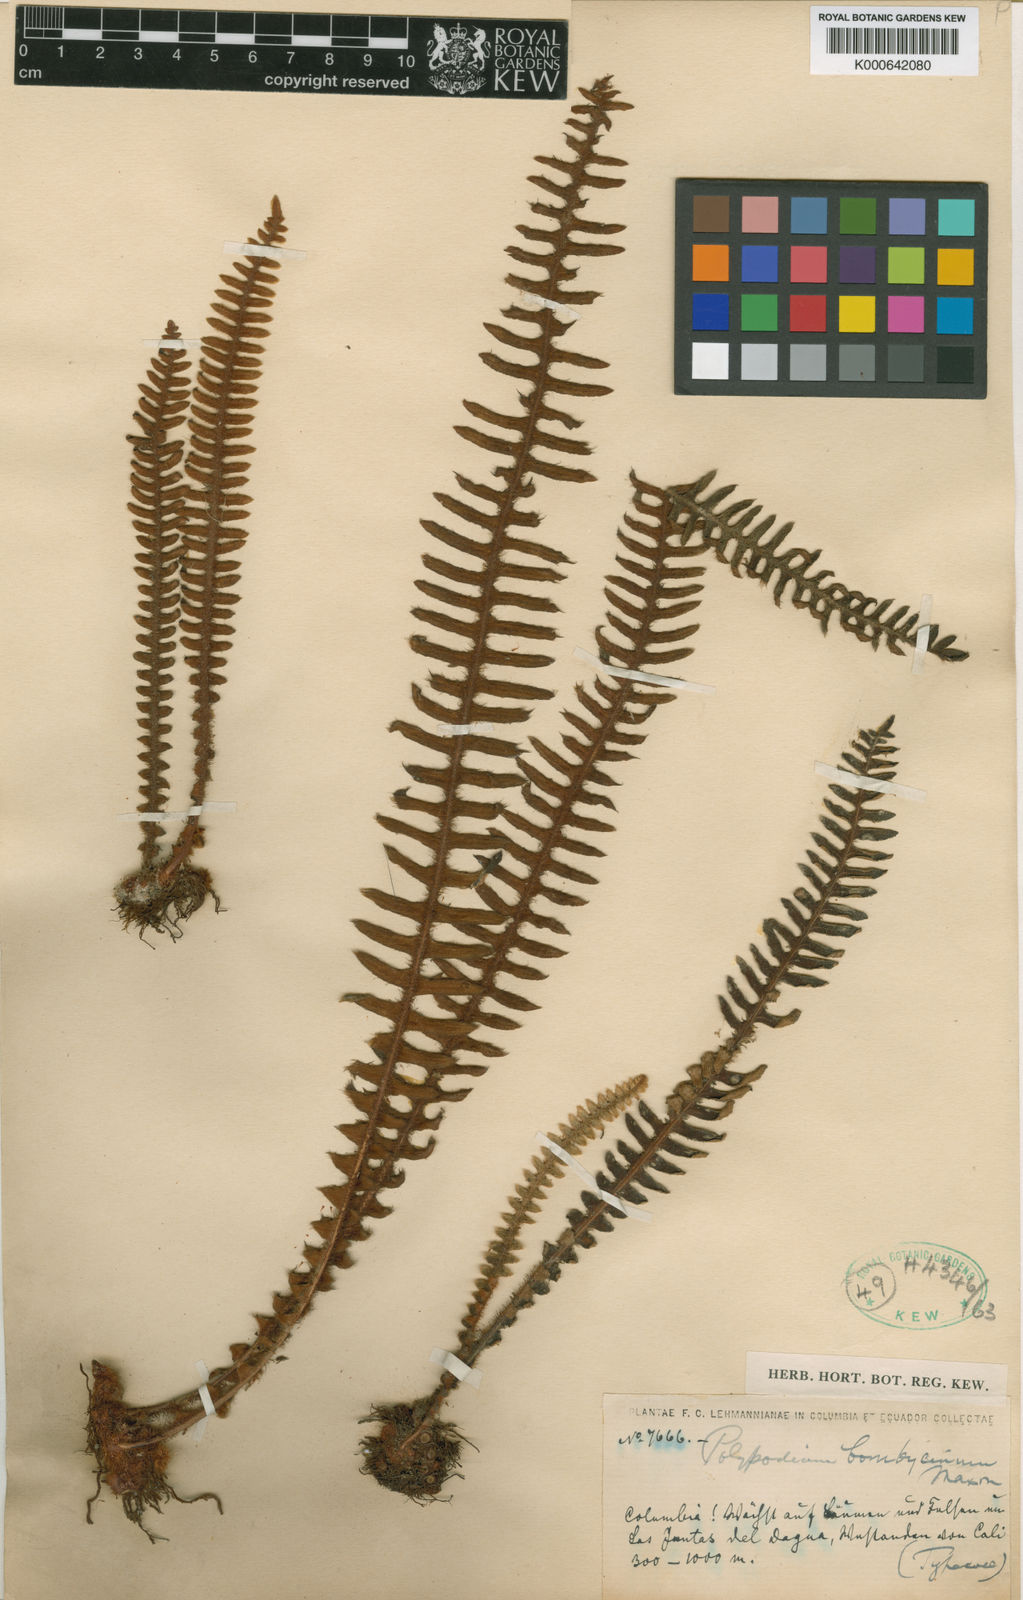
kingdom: Plantae
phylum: Tracheophyta
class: Polypodiopsida
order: Polypodiales
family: Polypodiaceae
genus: Pleopeltis
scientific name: Pleopeltis bombycina
